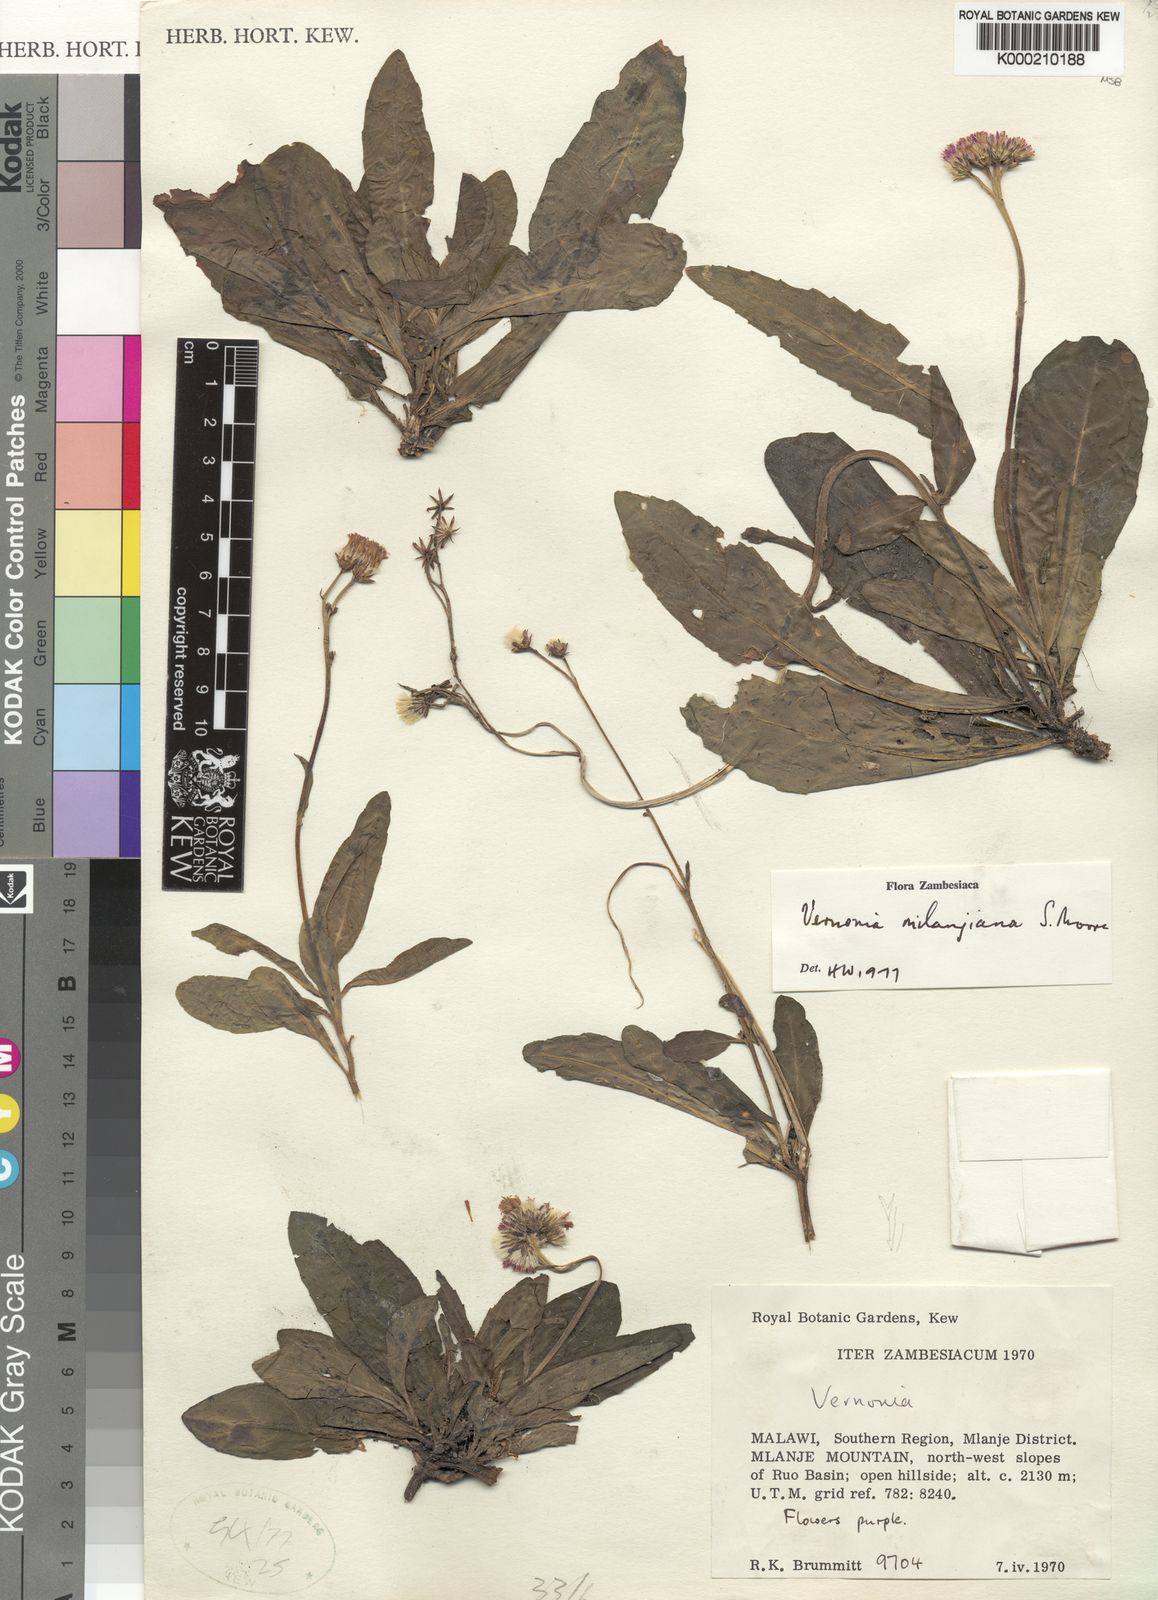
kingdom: Plantae
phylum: Tracheophyta
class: Magnoliopsida
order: Asterales
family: Asteraceae
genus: Vernonia
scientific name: Vernonia milanjiana
